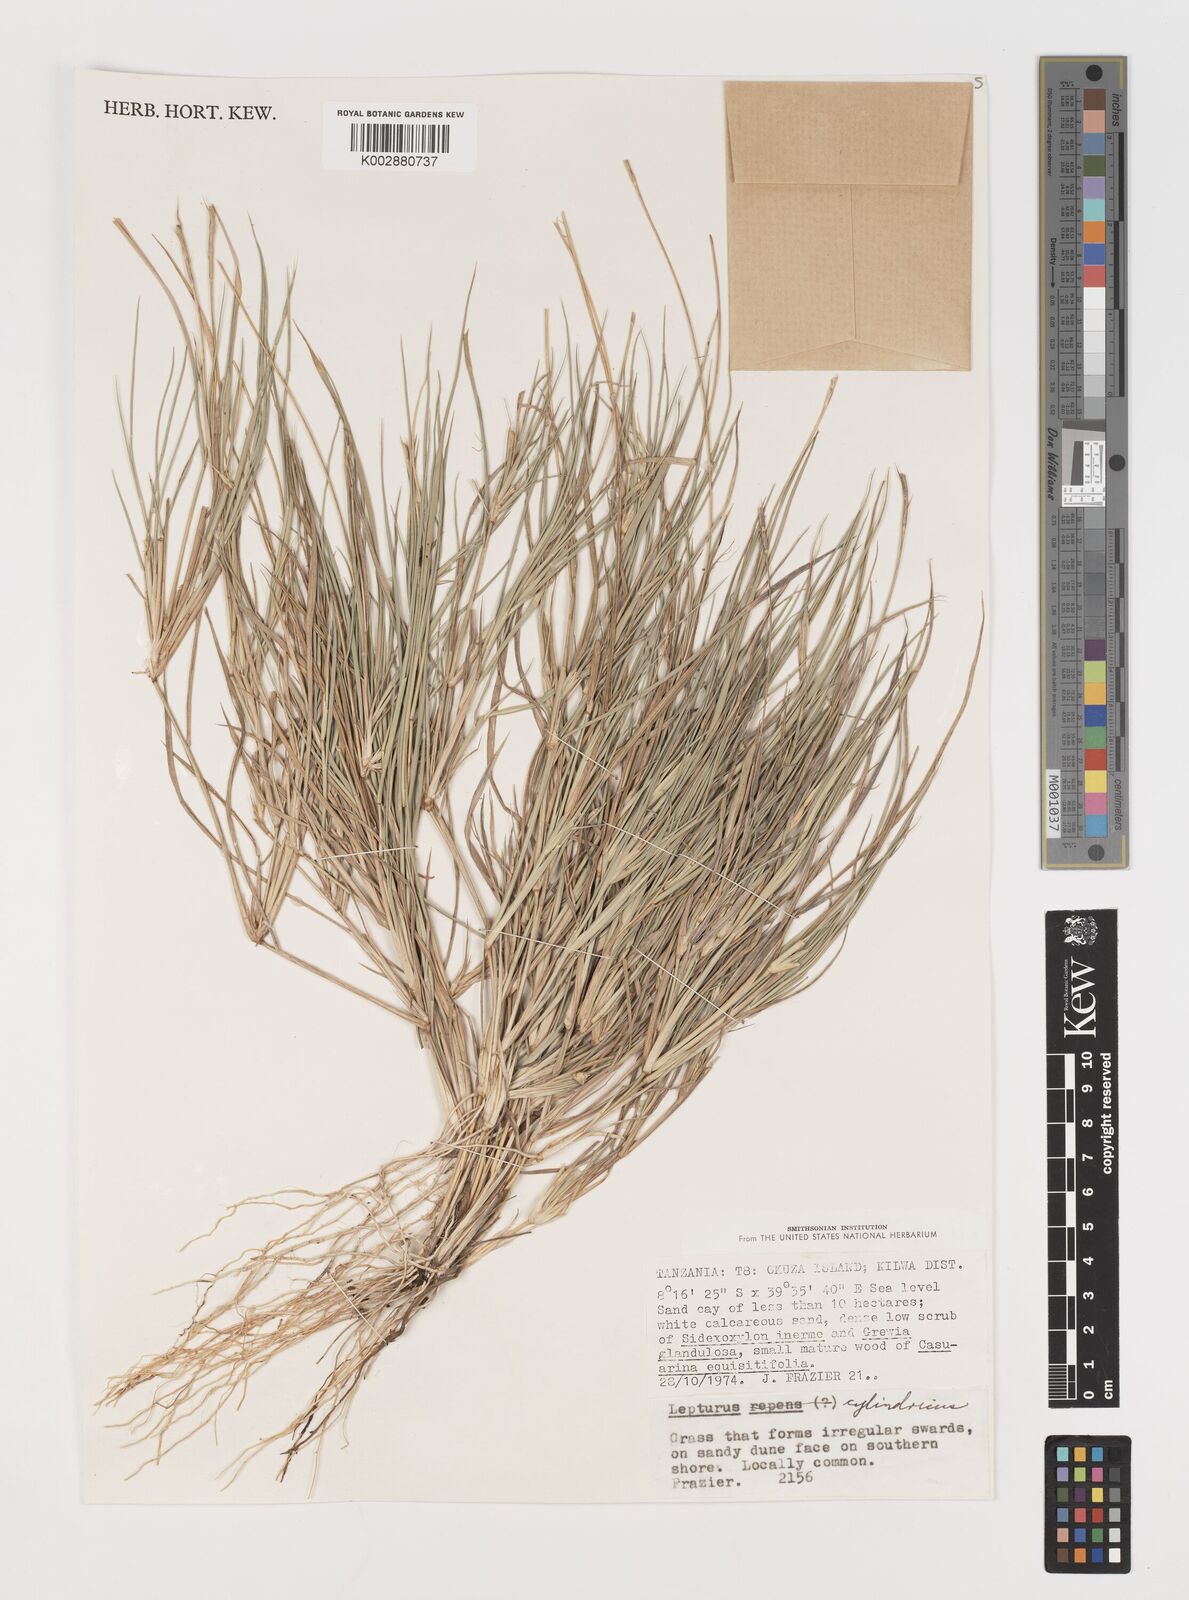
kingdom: Plantae
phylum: Tracheophyta
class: Liliopsida
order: Poales
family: Poaceae
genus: Lepturus
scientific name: Lepturus repens
